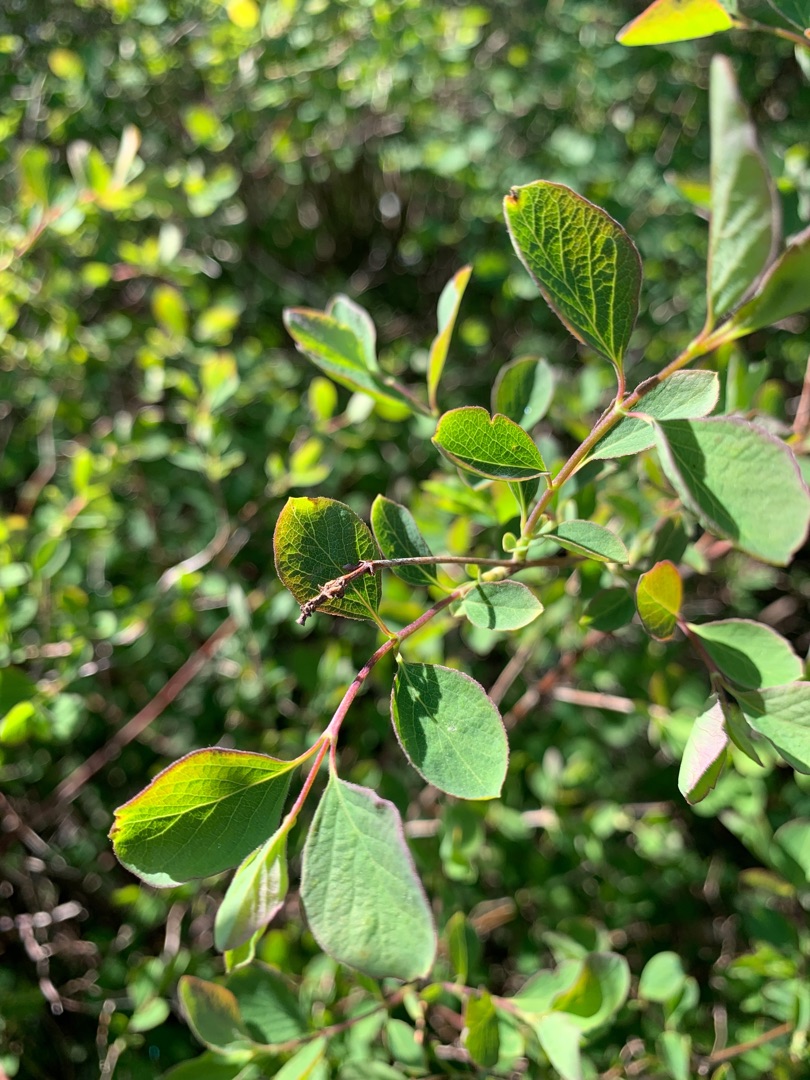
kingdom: Plantae
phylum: Tracheophyta
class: Magnoliopsida
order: Dipsacales
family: Caprifoliaceae
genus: Symphoricarpos
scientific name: Symphoricarpos albus
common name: Almindelig snebær
